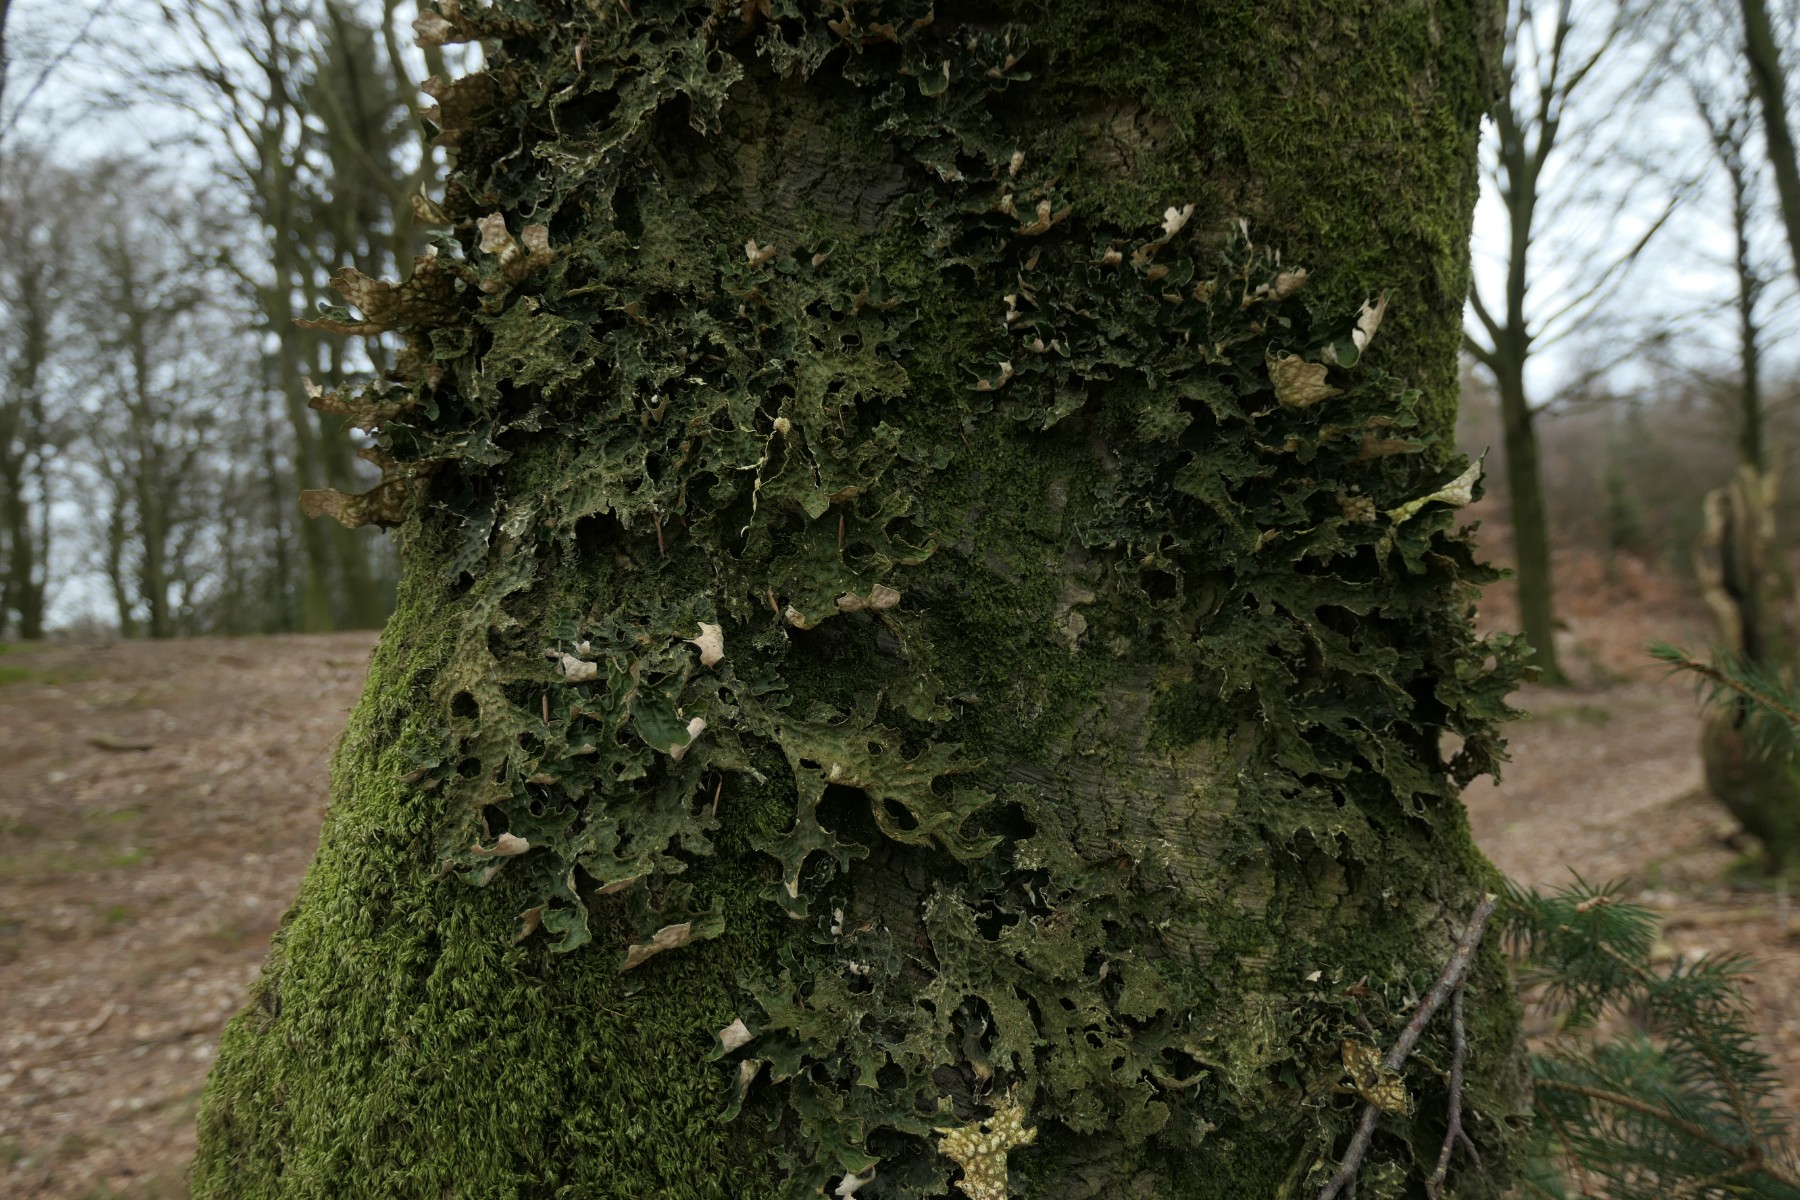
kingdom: Fungi
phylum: Ascomycota
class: Lecanoromycetes
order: Peltigerales
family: Lobariaceae
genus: Lobaria
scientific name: Lobaria pulmonaria
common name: almindelig lungelav
